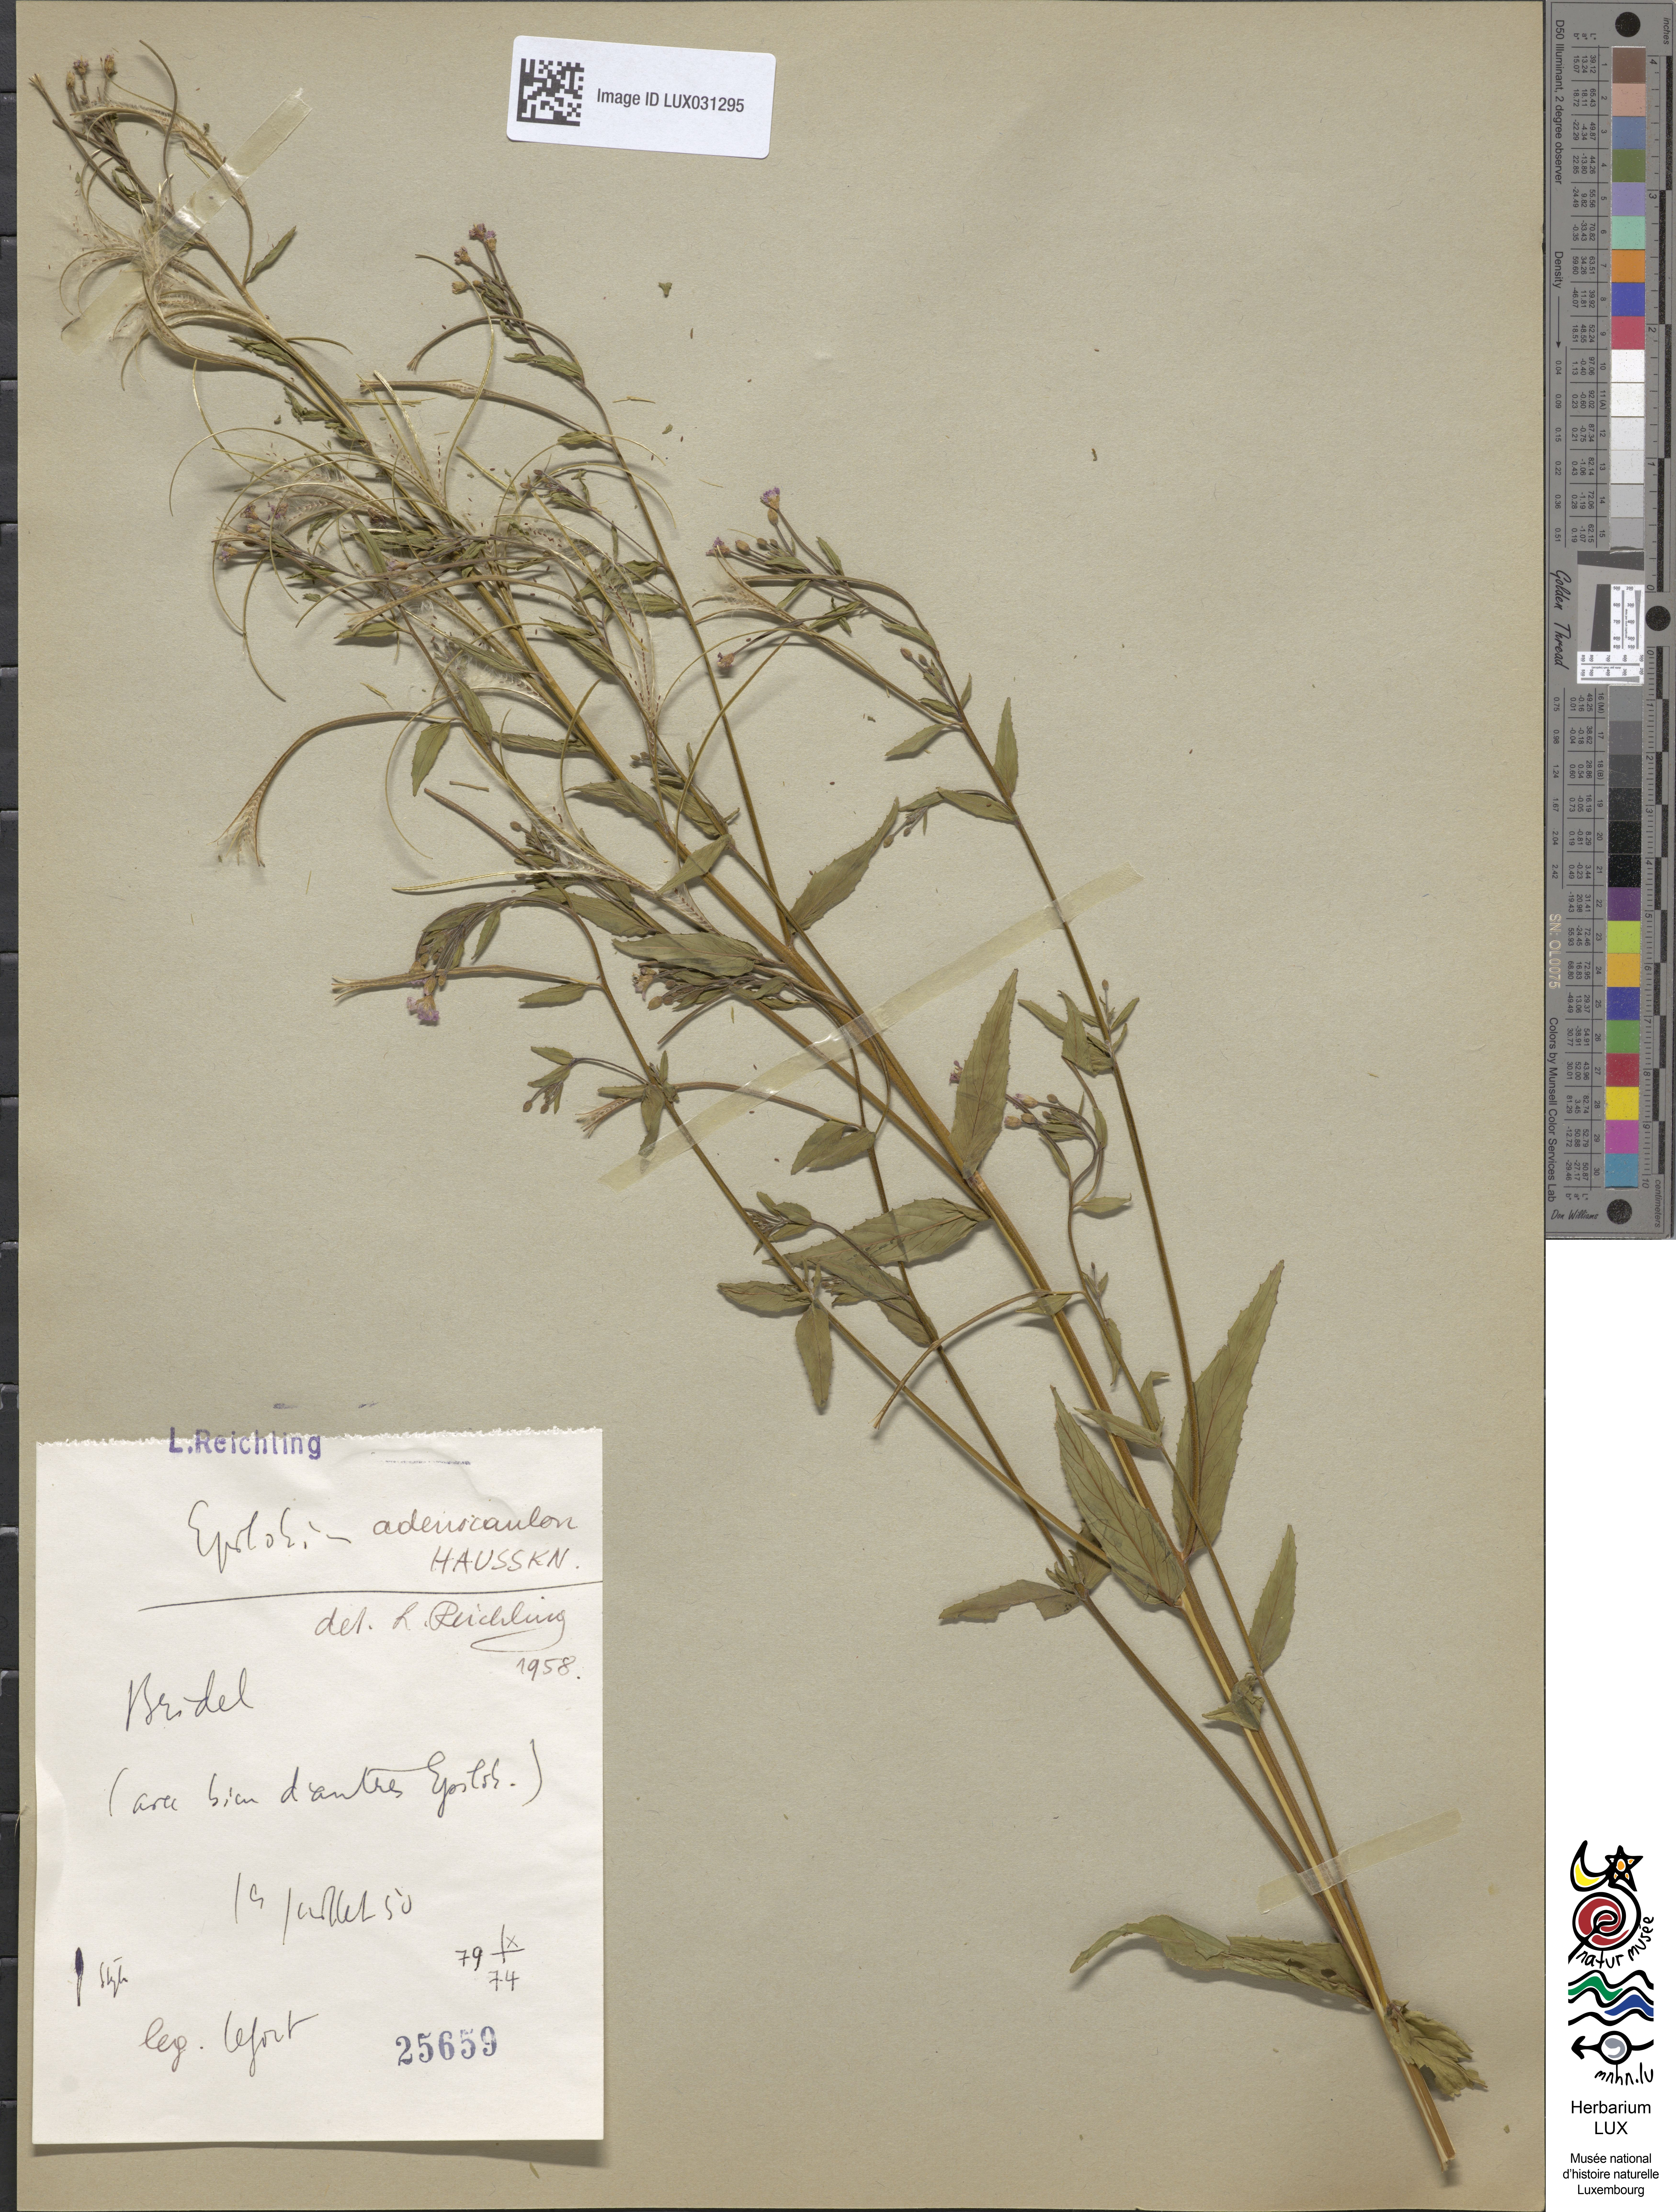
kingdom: Plantae
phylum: Tracheophyta
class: Magnoliopsida
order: Myrtales
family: Onagraceae
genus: Epilobium
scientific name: Epilobium ciliatum
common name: American willowherb
